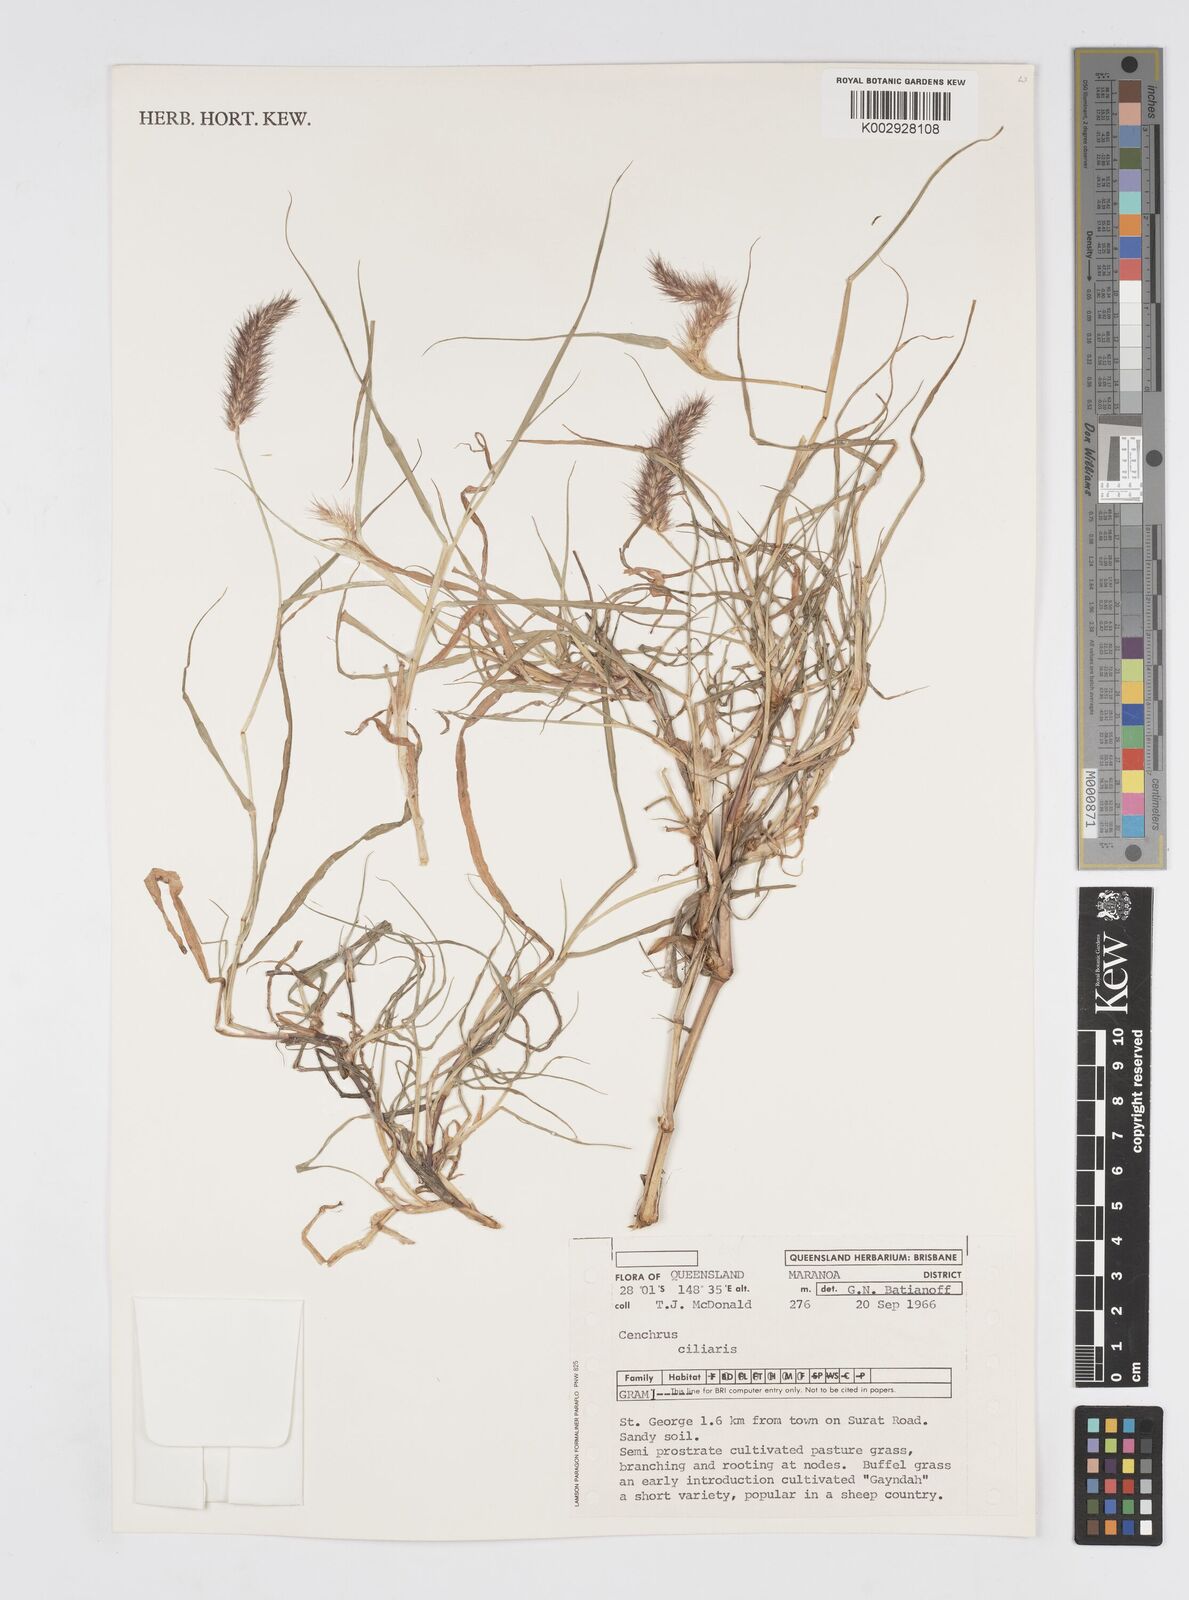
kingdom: Plantae
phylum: Tracheophyta
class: Liliopsida
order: Poales
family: Poaceae
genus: Cenchrus
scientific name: Cenchrus ciliaris
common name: Buffelgrass
